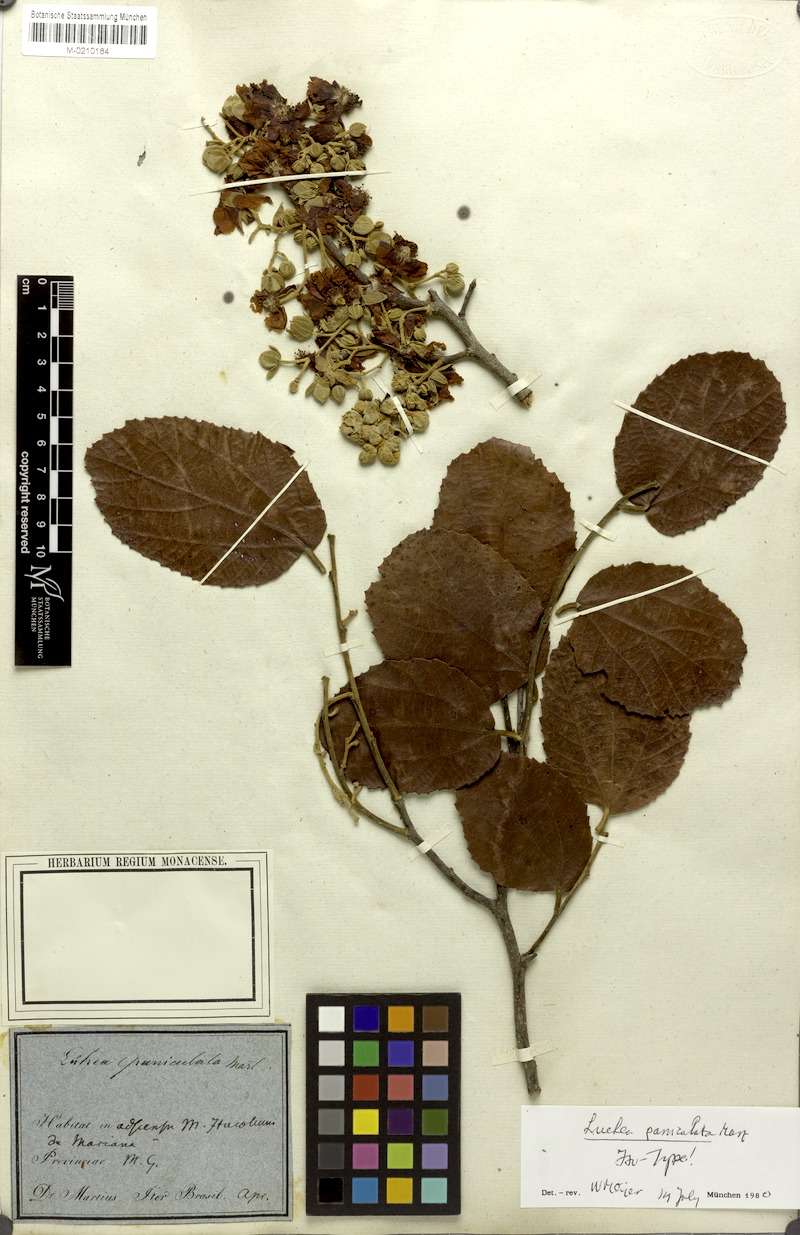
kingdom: Plantae
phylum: Tracheophyta
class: Magnoliopsida
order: Malvales
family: Malvaceae
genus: Luehea
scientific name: Luehea paniculata
